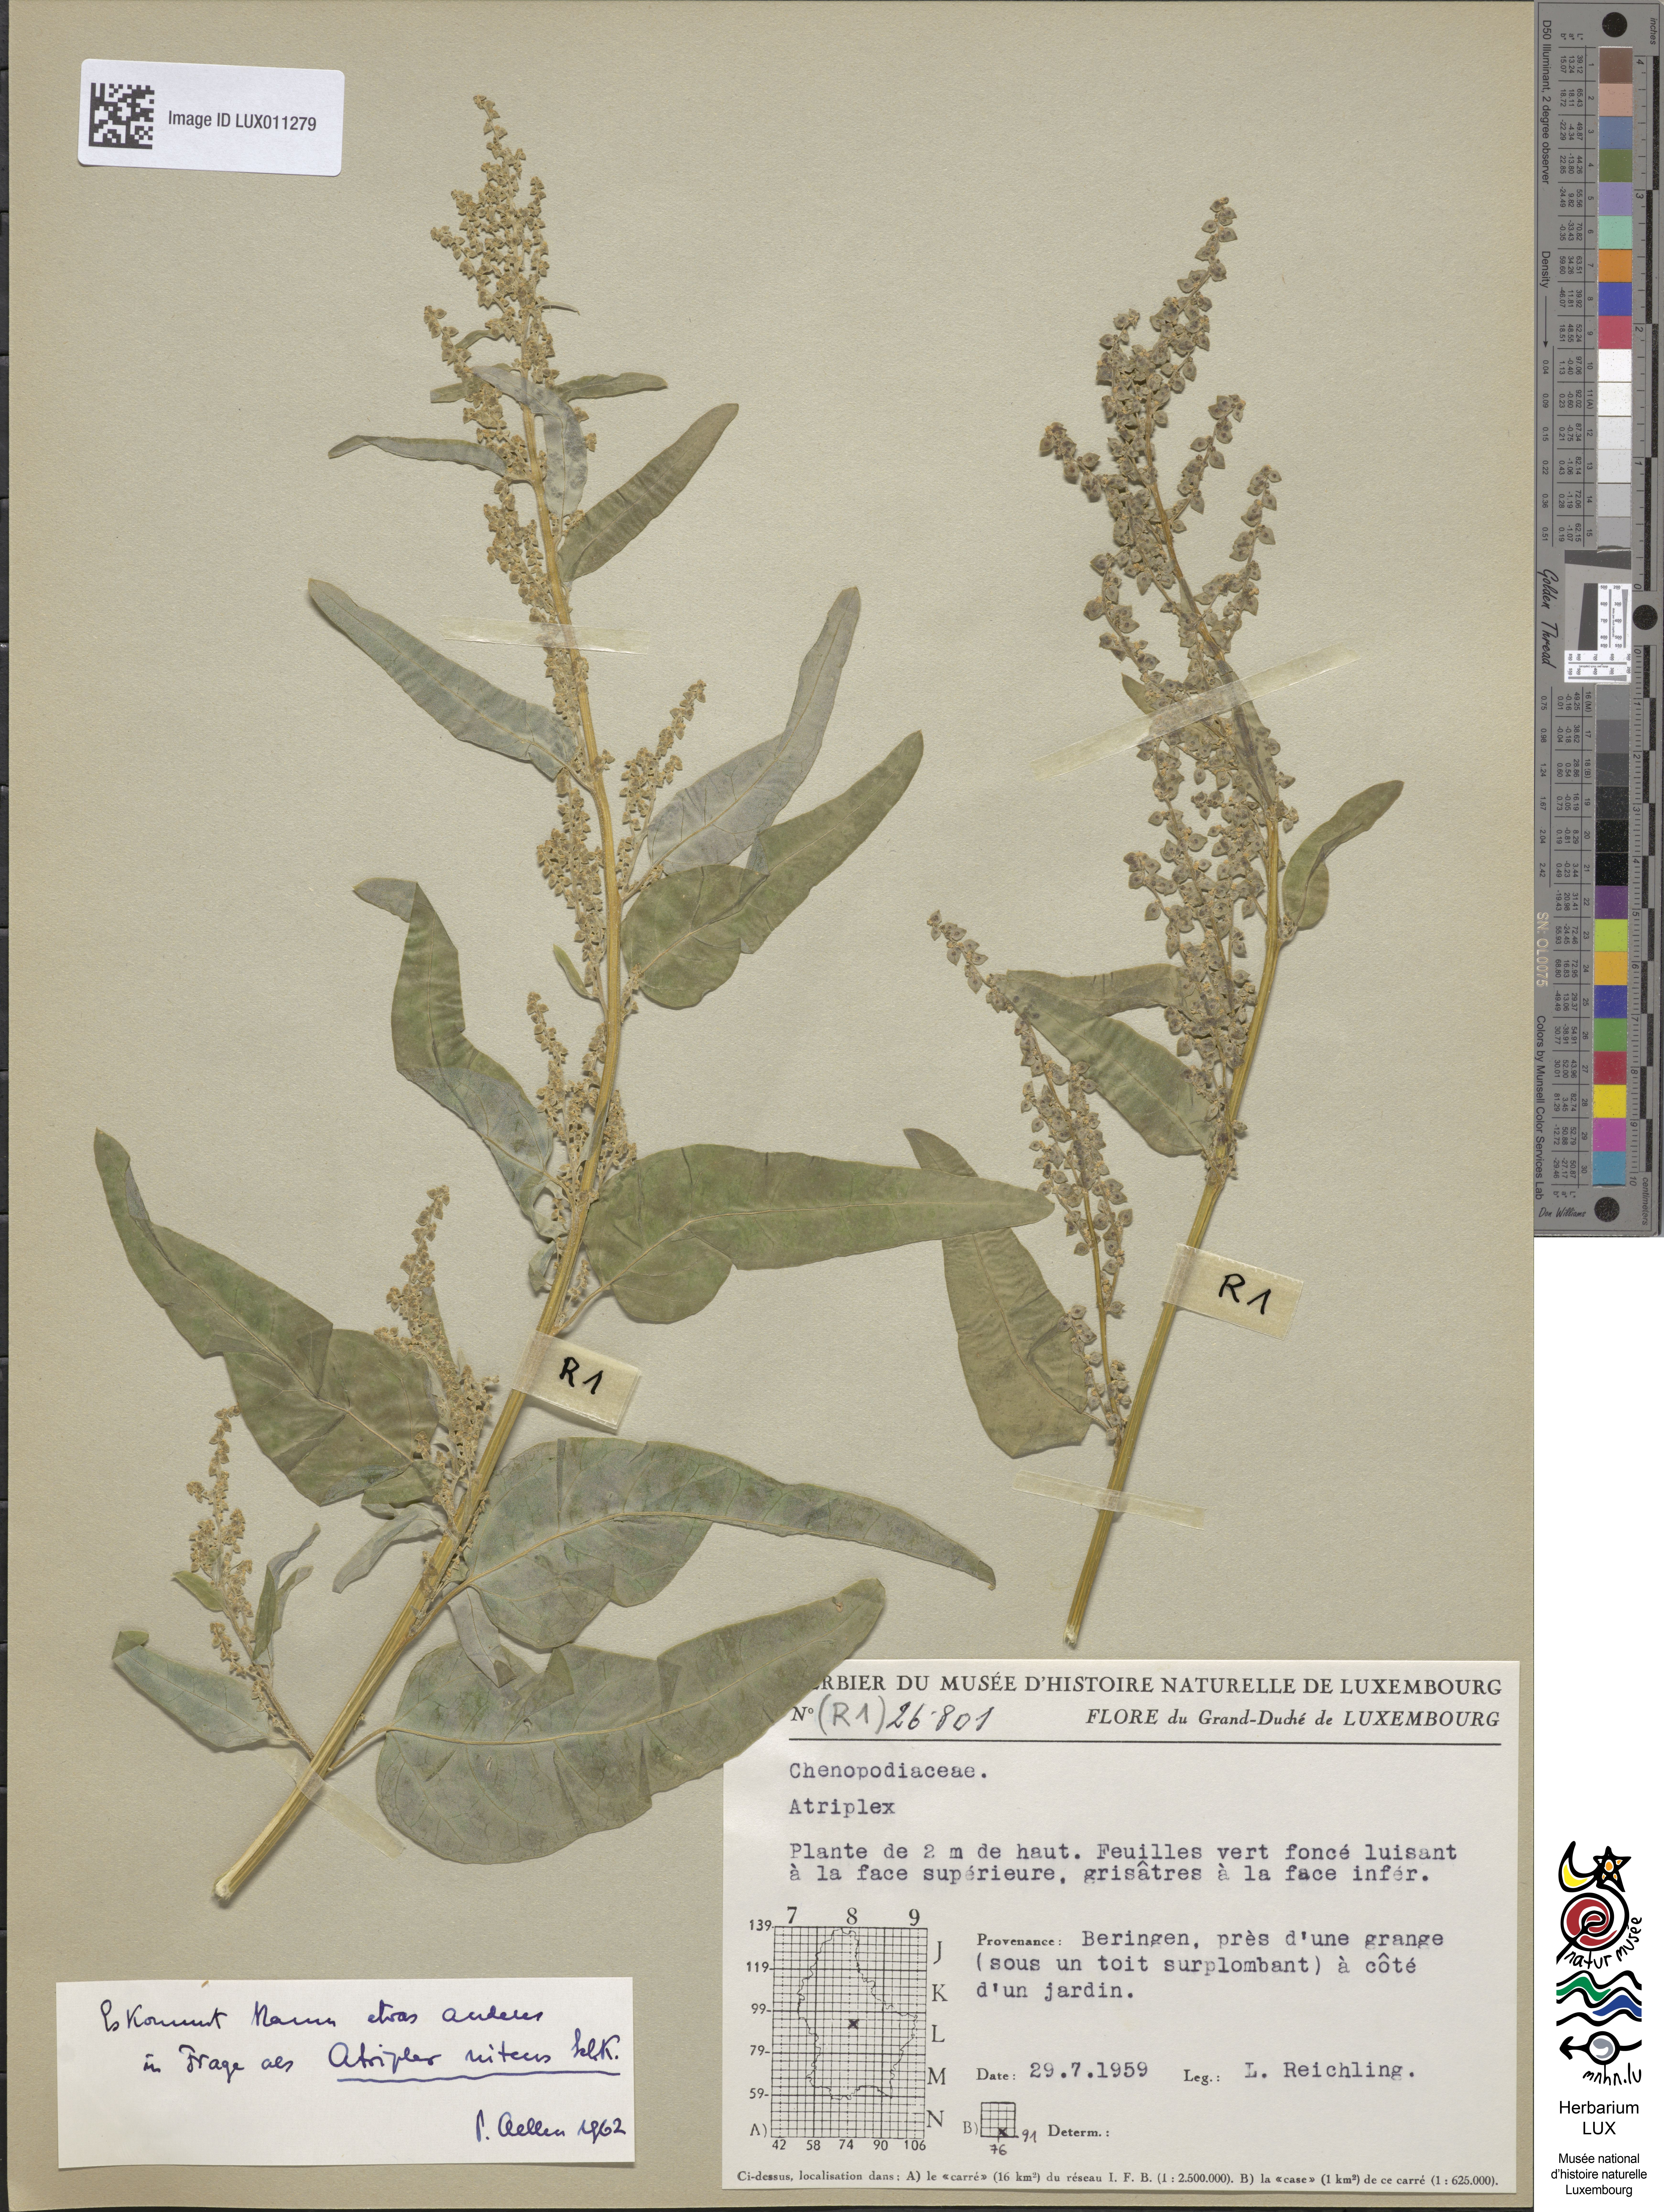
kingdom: Plantae
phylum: Tracheophyta
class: Magnoliopsida
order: Caryophyllales
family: Amaranthaceae
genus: Atriplex
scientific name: Atriplex
